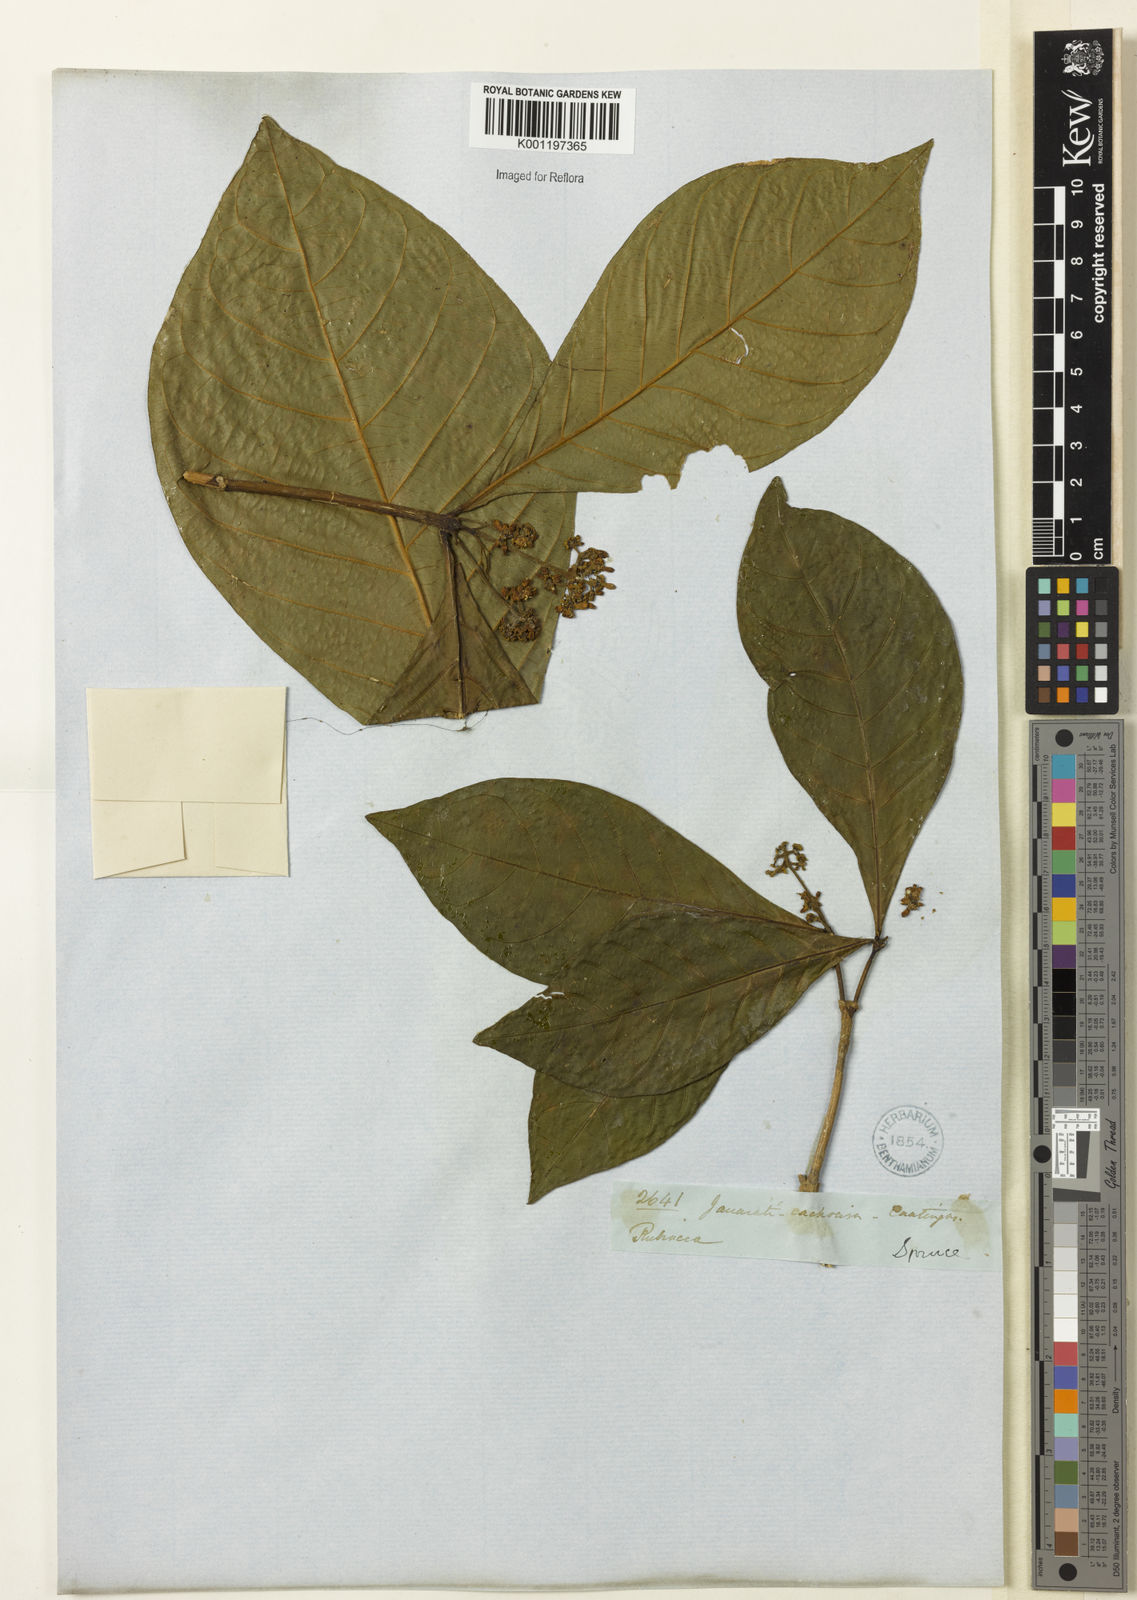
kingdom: Plantae
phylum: Tracheophyta
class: Magnoliopsida
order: Gentianales
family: Rubiaceae
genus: Palicourea
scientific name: Palicourea coussareoides
